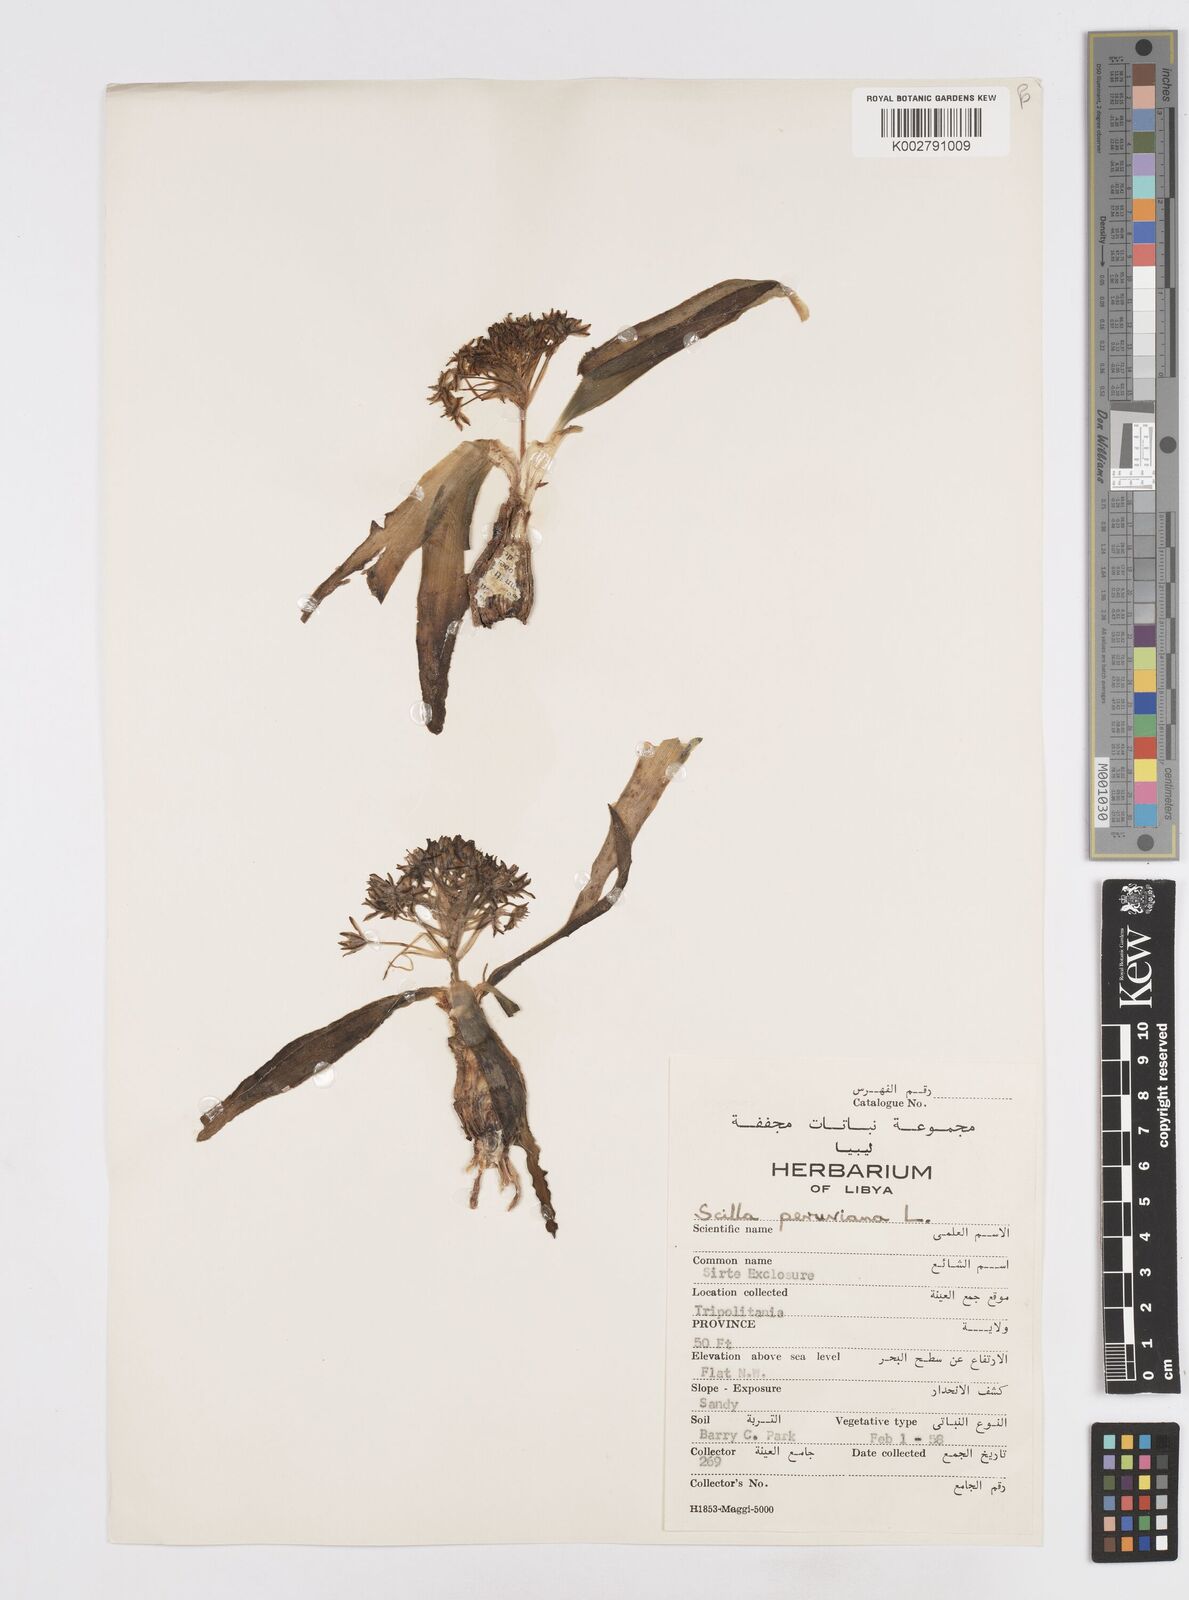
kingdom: Plantae
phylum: Tracheophyta
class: Liliopsida
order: Asparagales
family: Asparagaceae
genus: Scilla
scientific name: Scilla peruviana
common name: Portuguese squill
